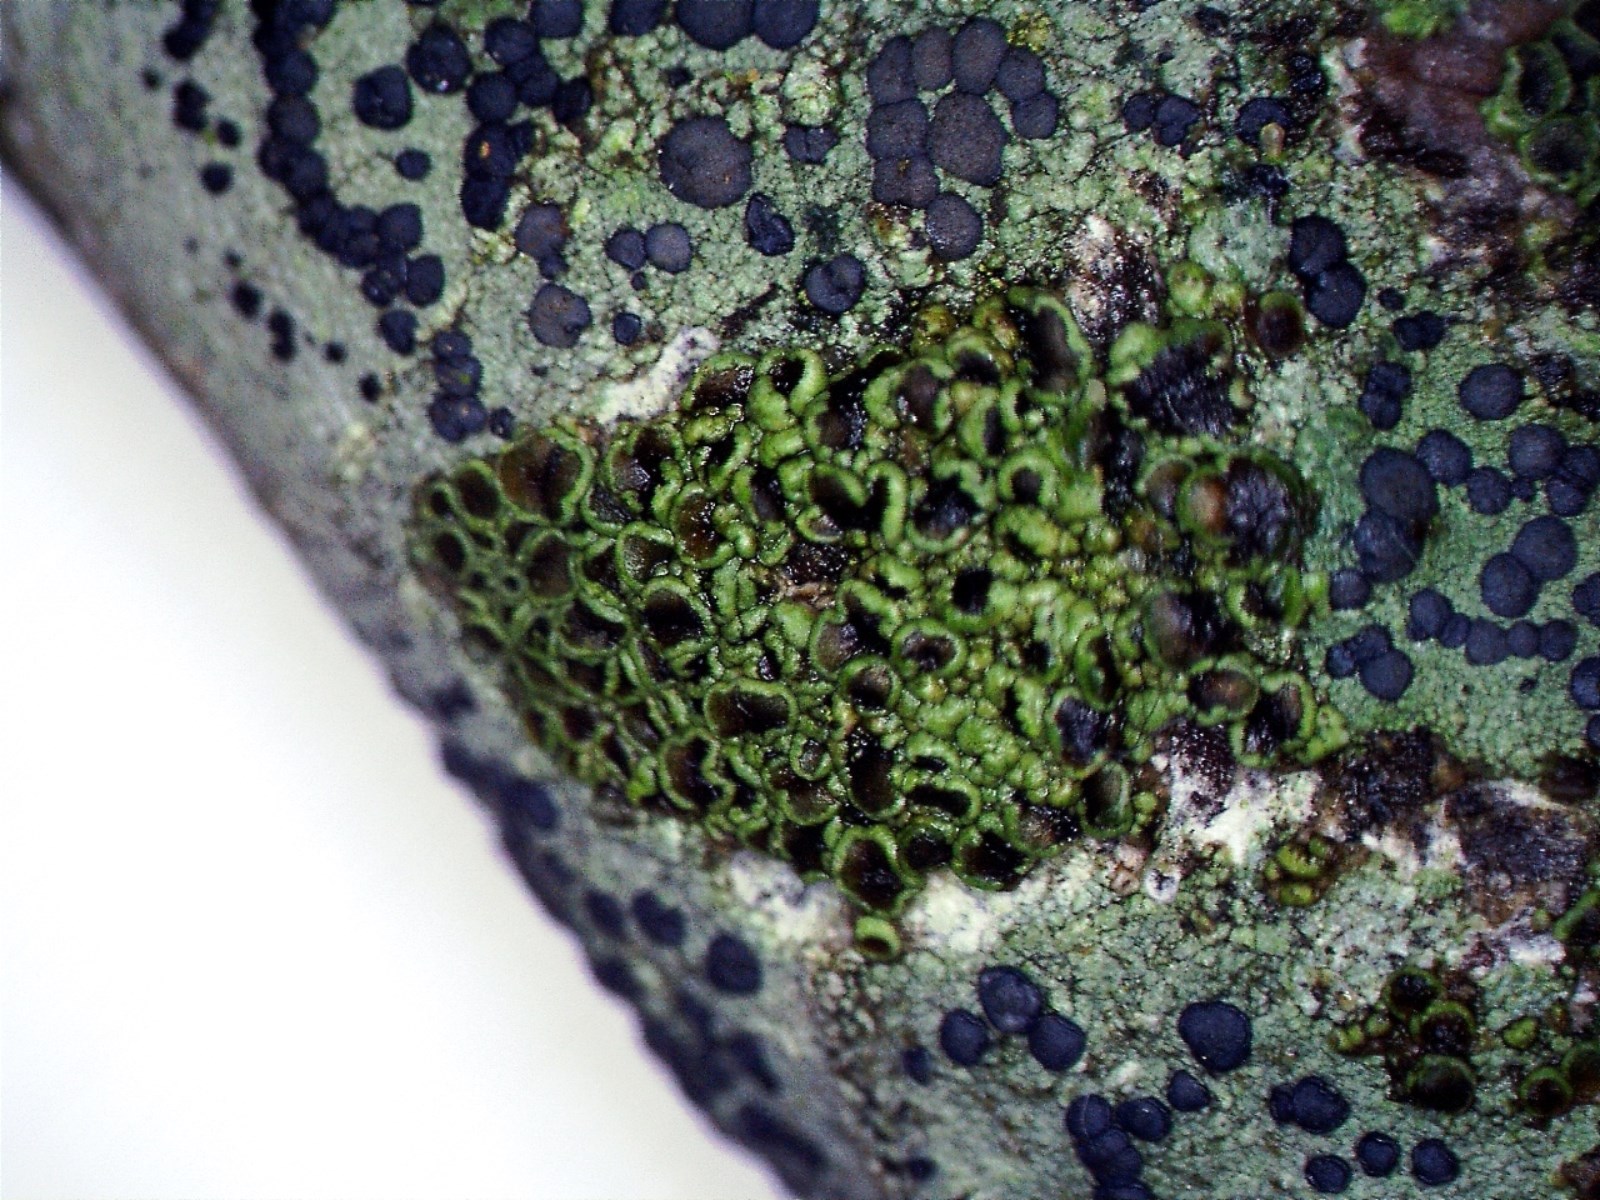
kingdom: Fungi
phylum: Ascomycota
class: Lecanoromycetes
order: Caliciales
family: Physciaceae
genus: Rinodina
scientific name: Rinodina
